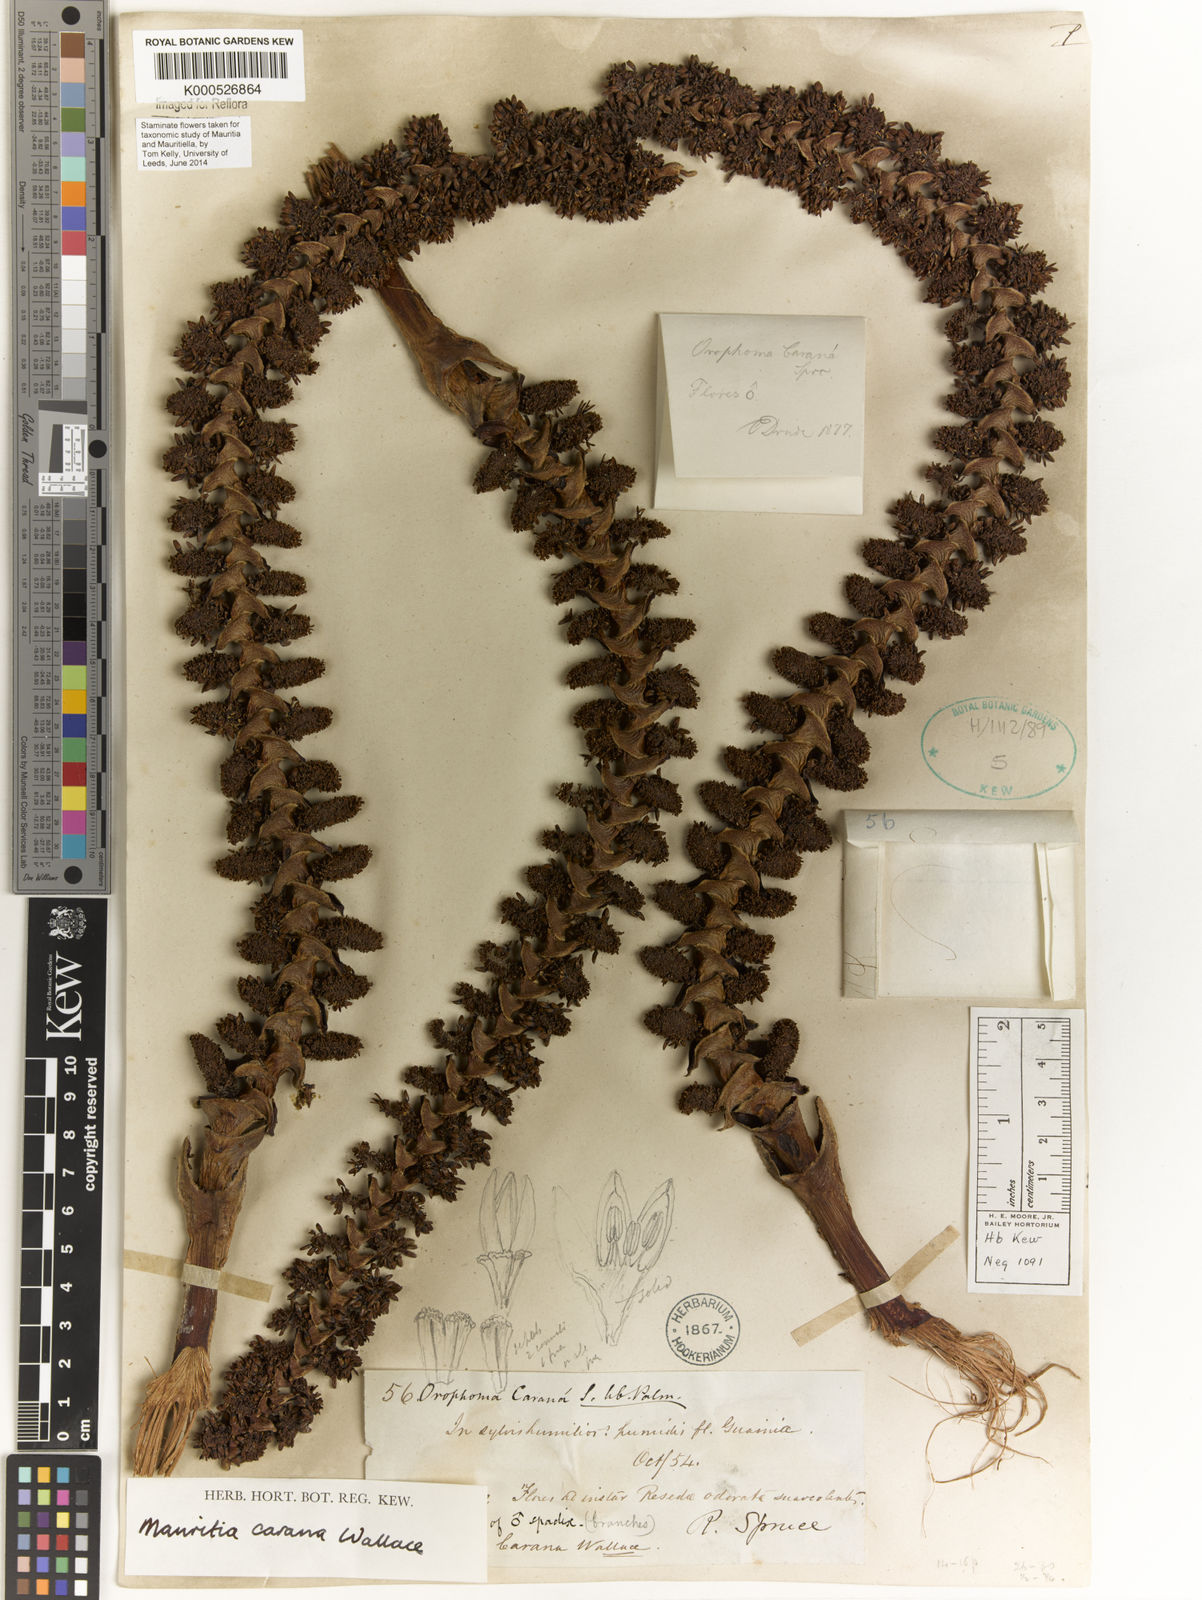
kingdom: Plantae
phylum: Tracheophyta
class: Liliopsida
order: Arecales
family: Arecaceae
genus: Mauritia
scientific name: Mauritia carana
